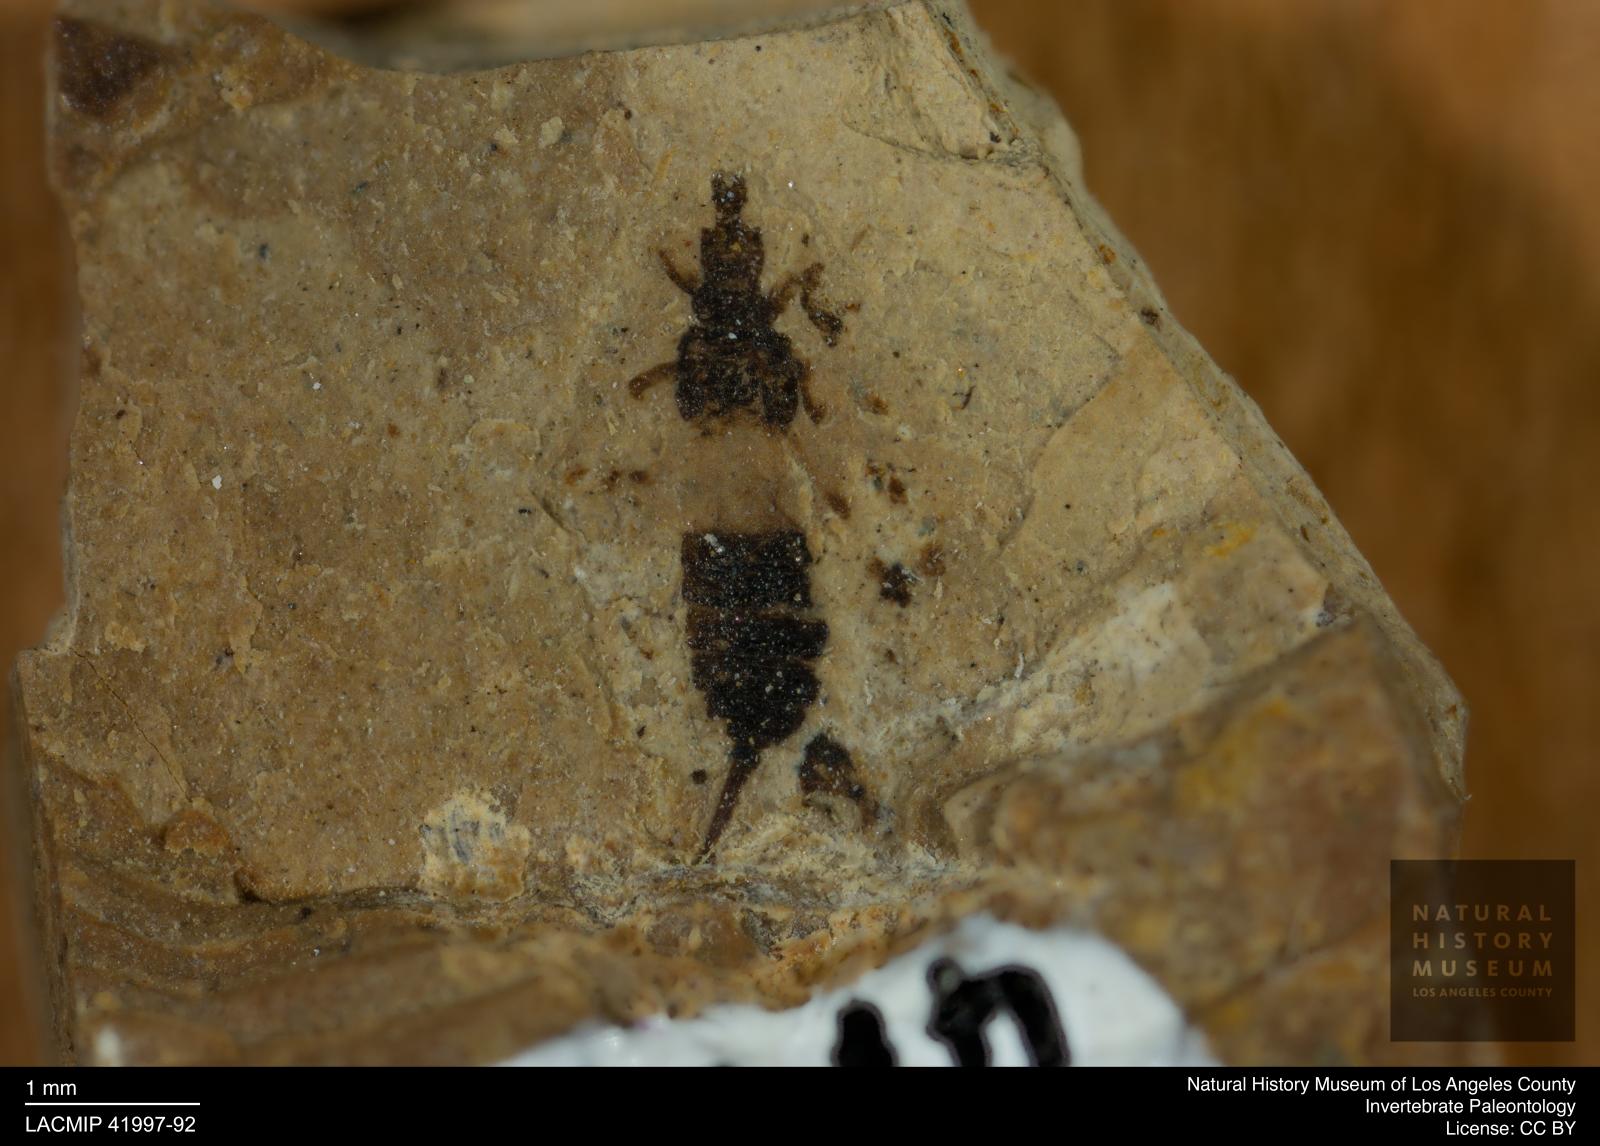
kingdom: Animalia
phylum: Arthropoda
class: Insecta
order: Thysanoptera
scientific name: Thysanoptera
